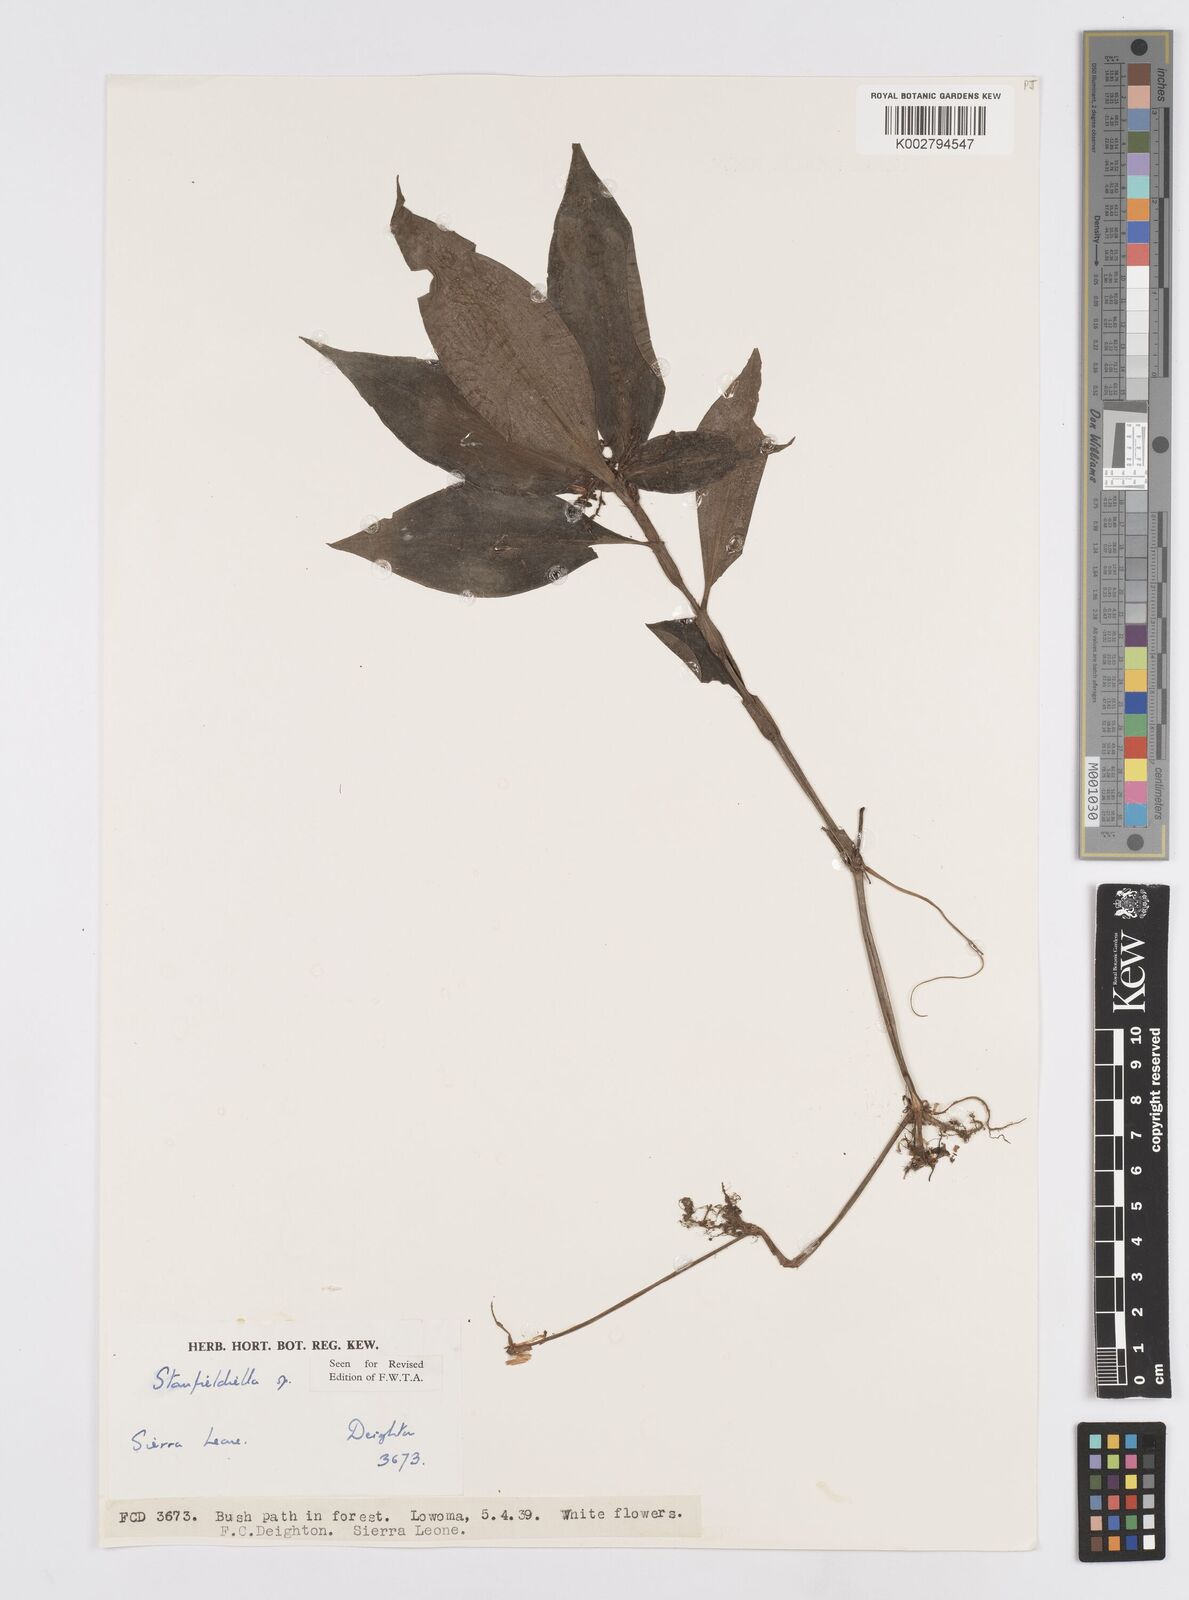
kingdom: Plantae
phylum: Tracheophyta
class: Liliopsida
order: Commelinales
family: Commelinaceae
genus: Stanfieldiella
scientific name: Stanfieldiella
